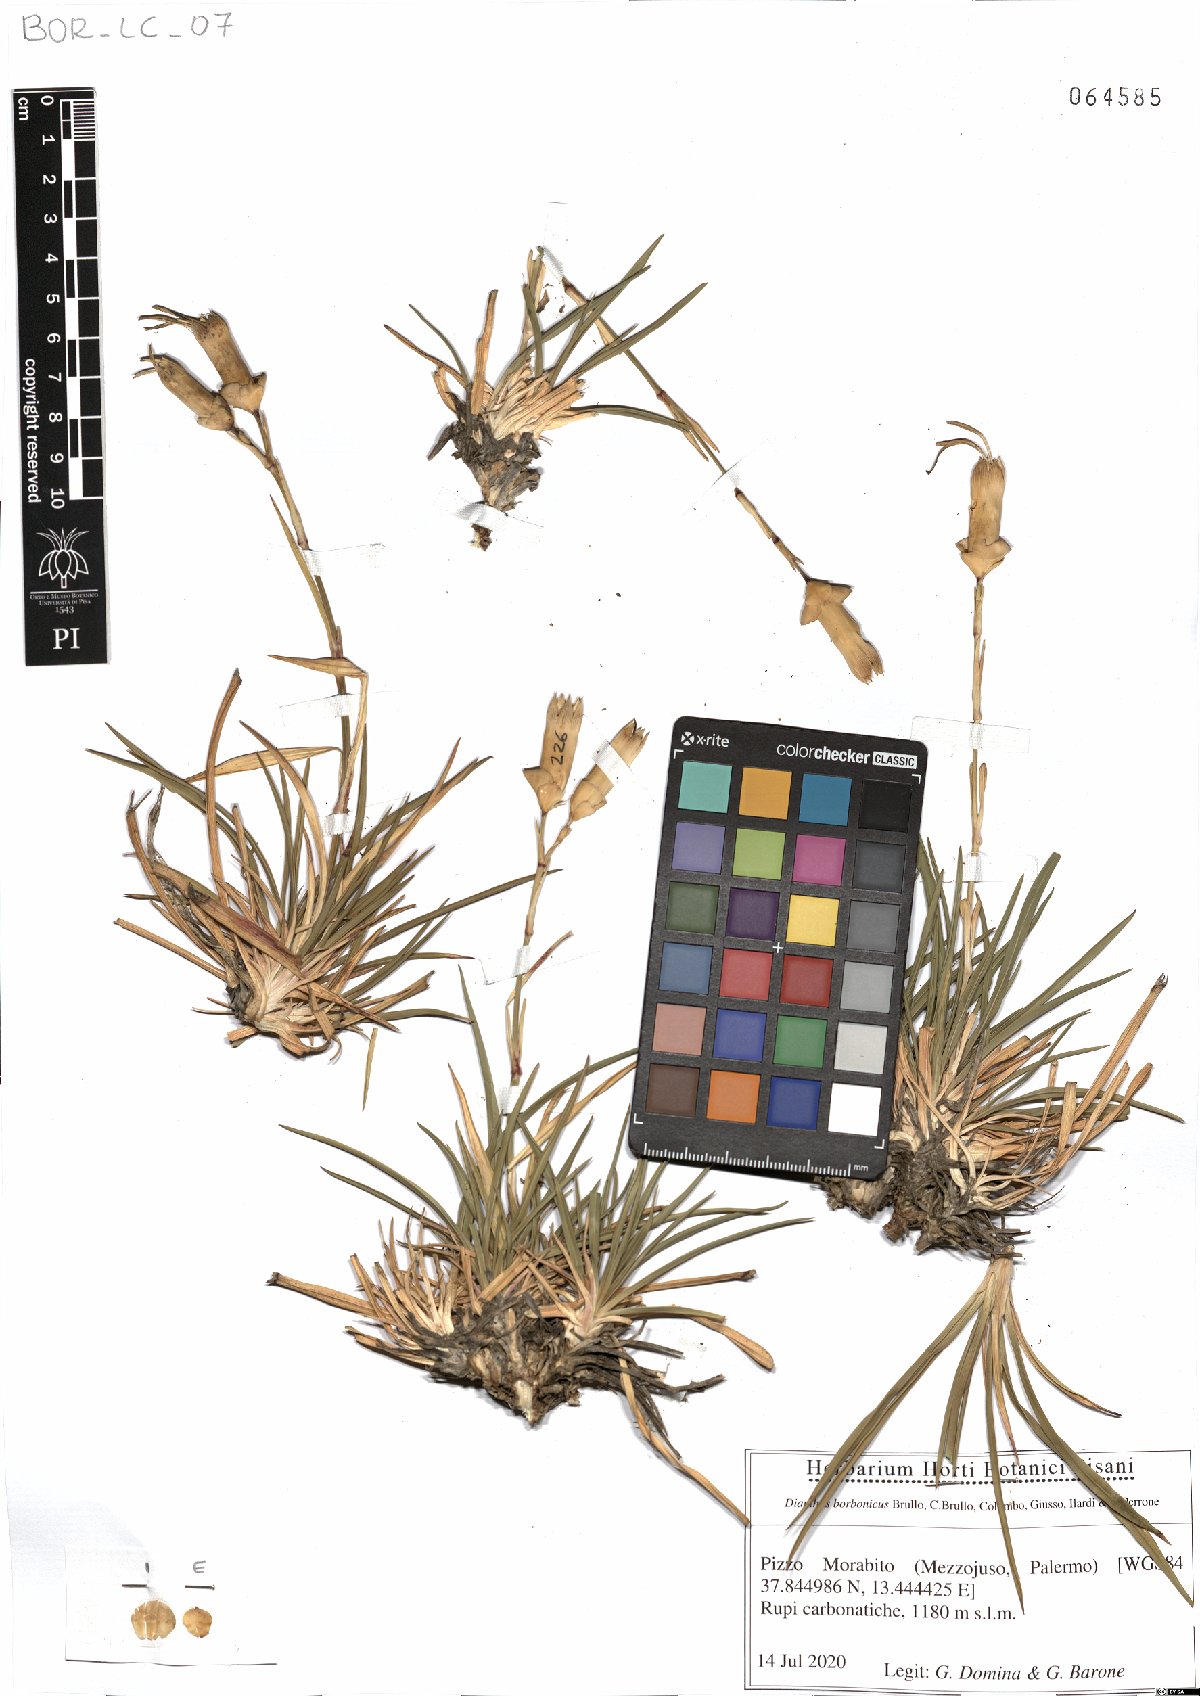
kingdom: Plantae
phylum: Tracheophyta
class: Magnoliopsida
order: Caryophyllales
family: Caryophyllaceae
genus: Dianthus
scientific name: Dianthus borbonicus
